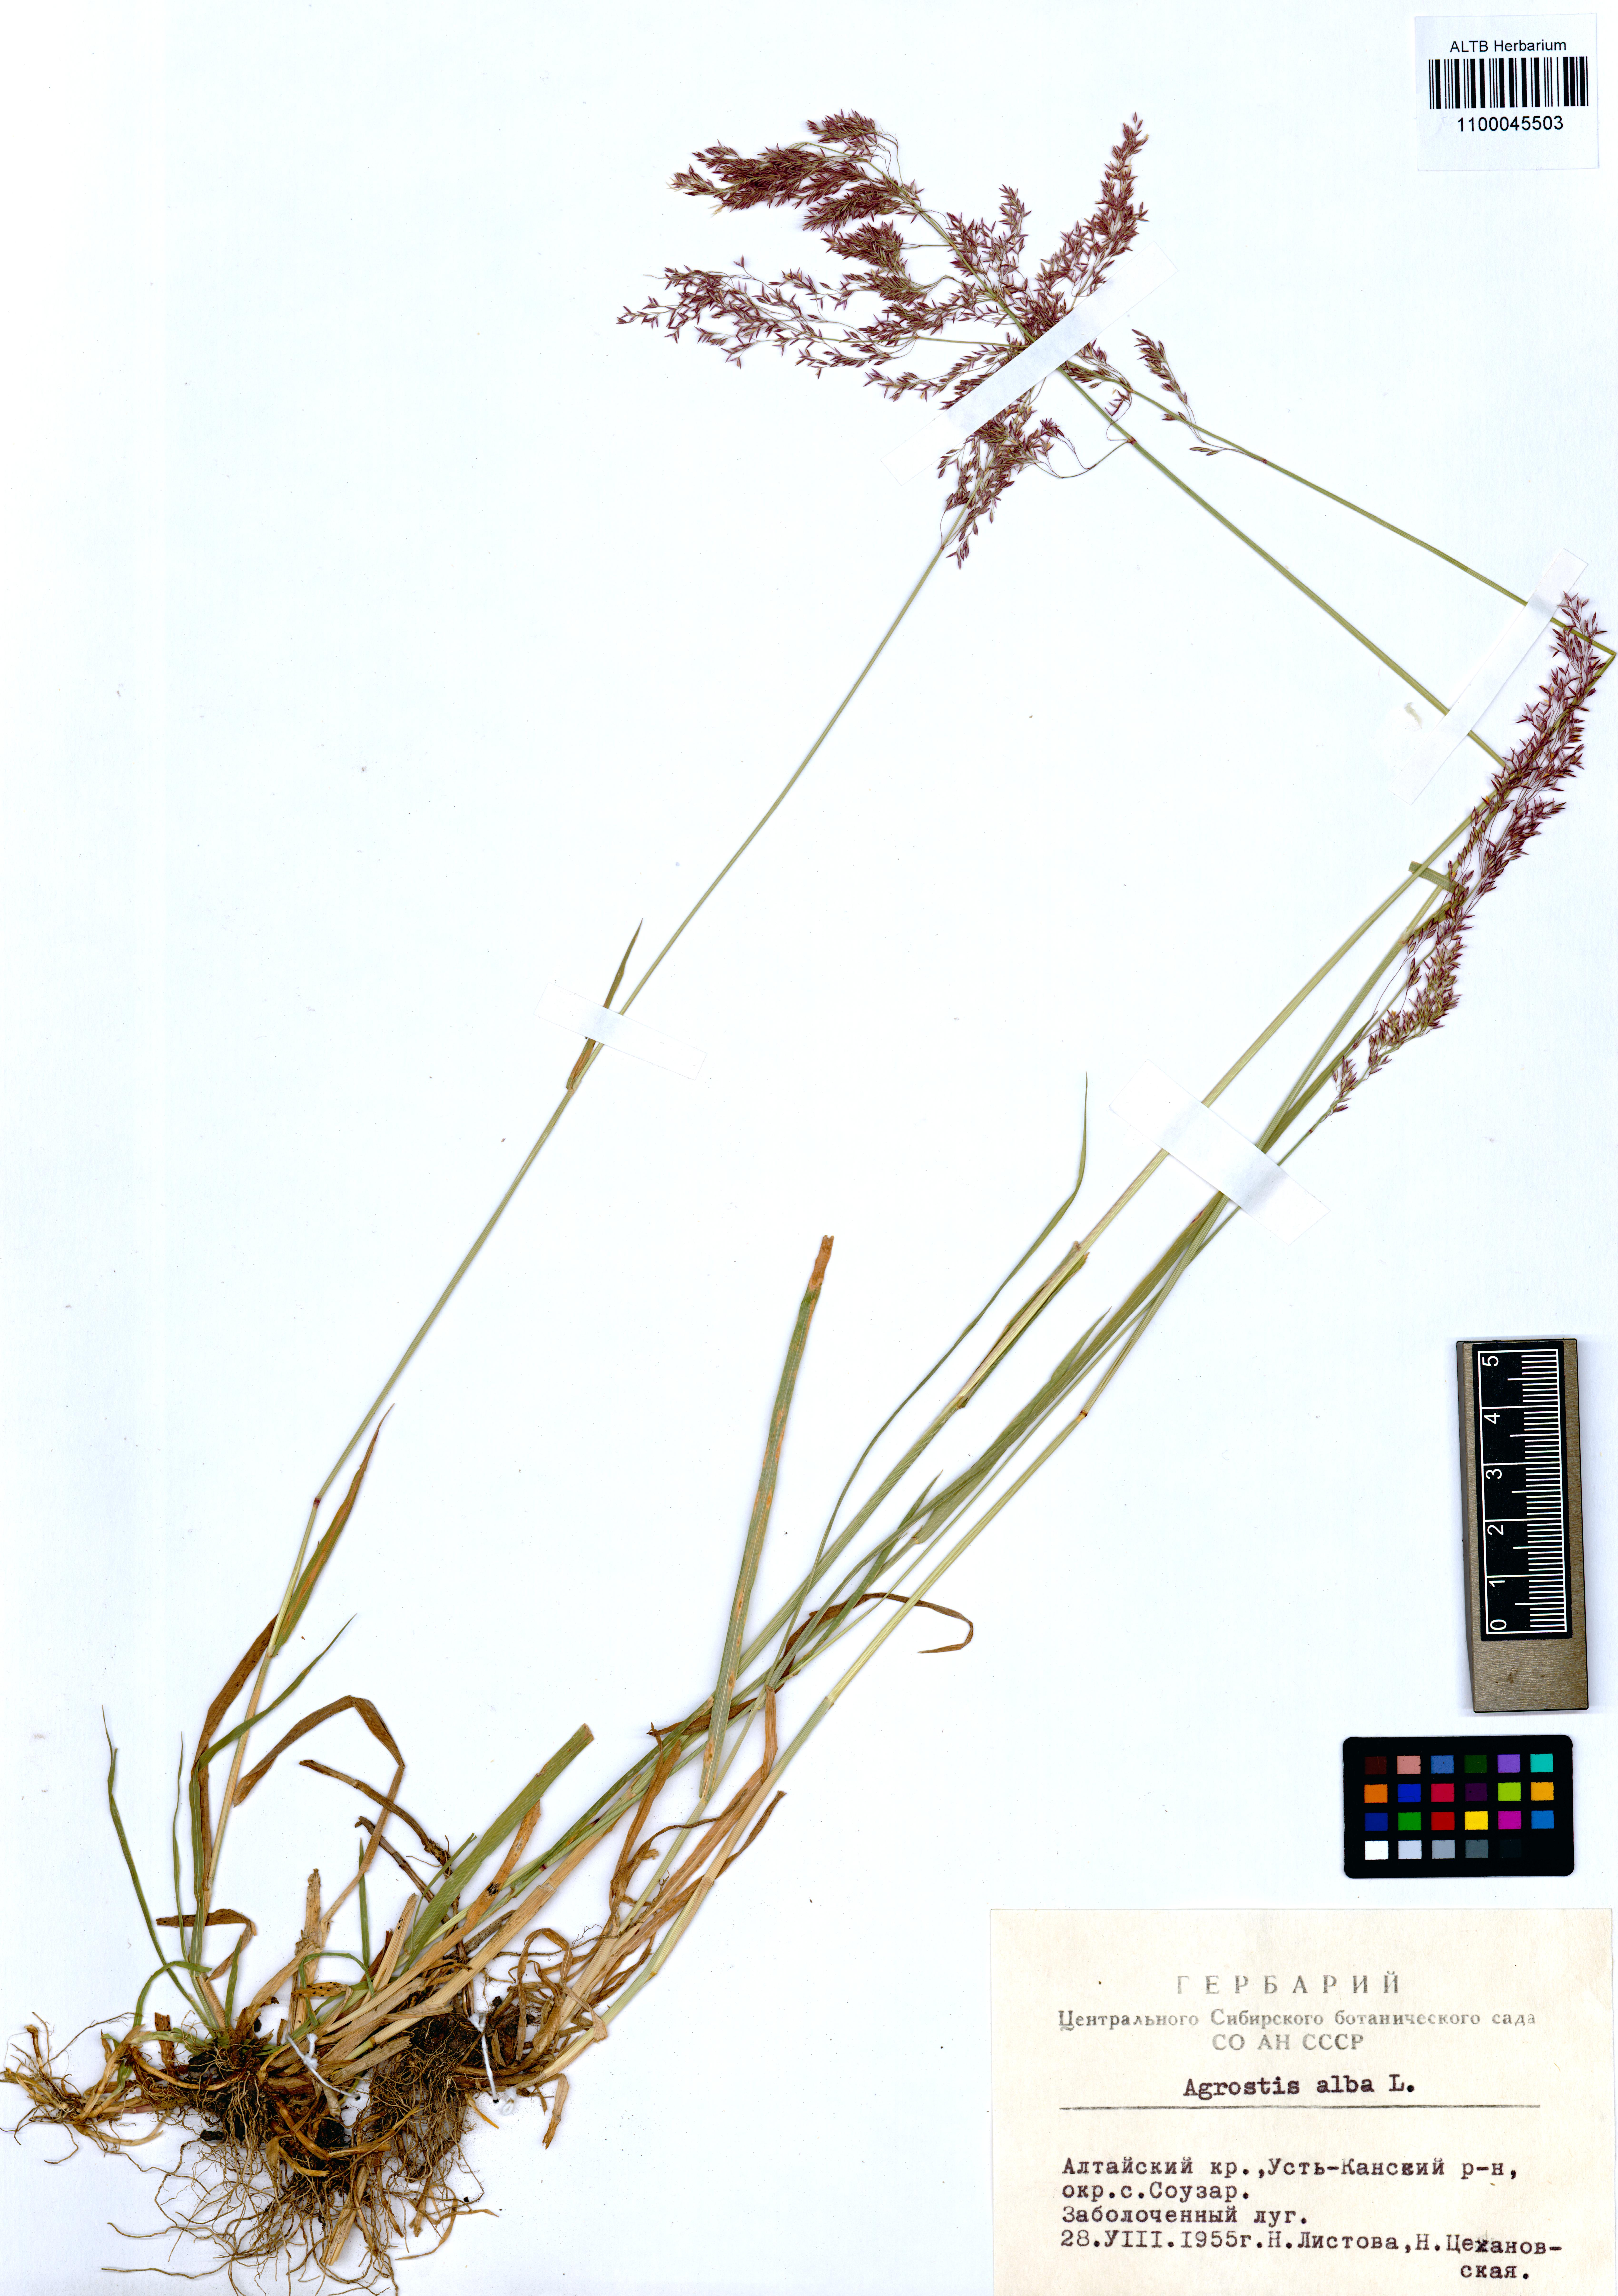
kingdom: Plantae
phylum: Tracheophyta
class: Liliopsida
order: Poales
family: Poaceae
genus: Agrostis
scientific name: Agrostis gigantea
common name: Black bent
